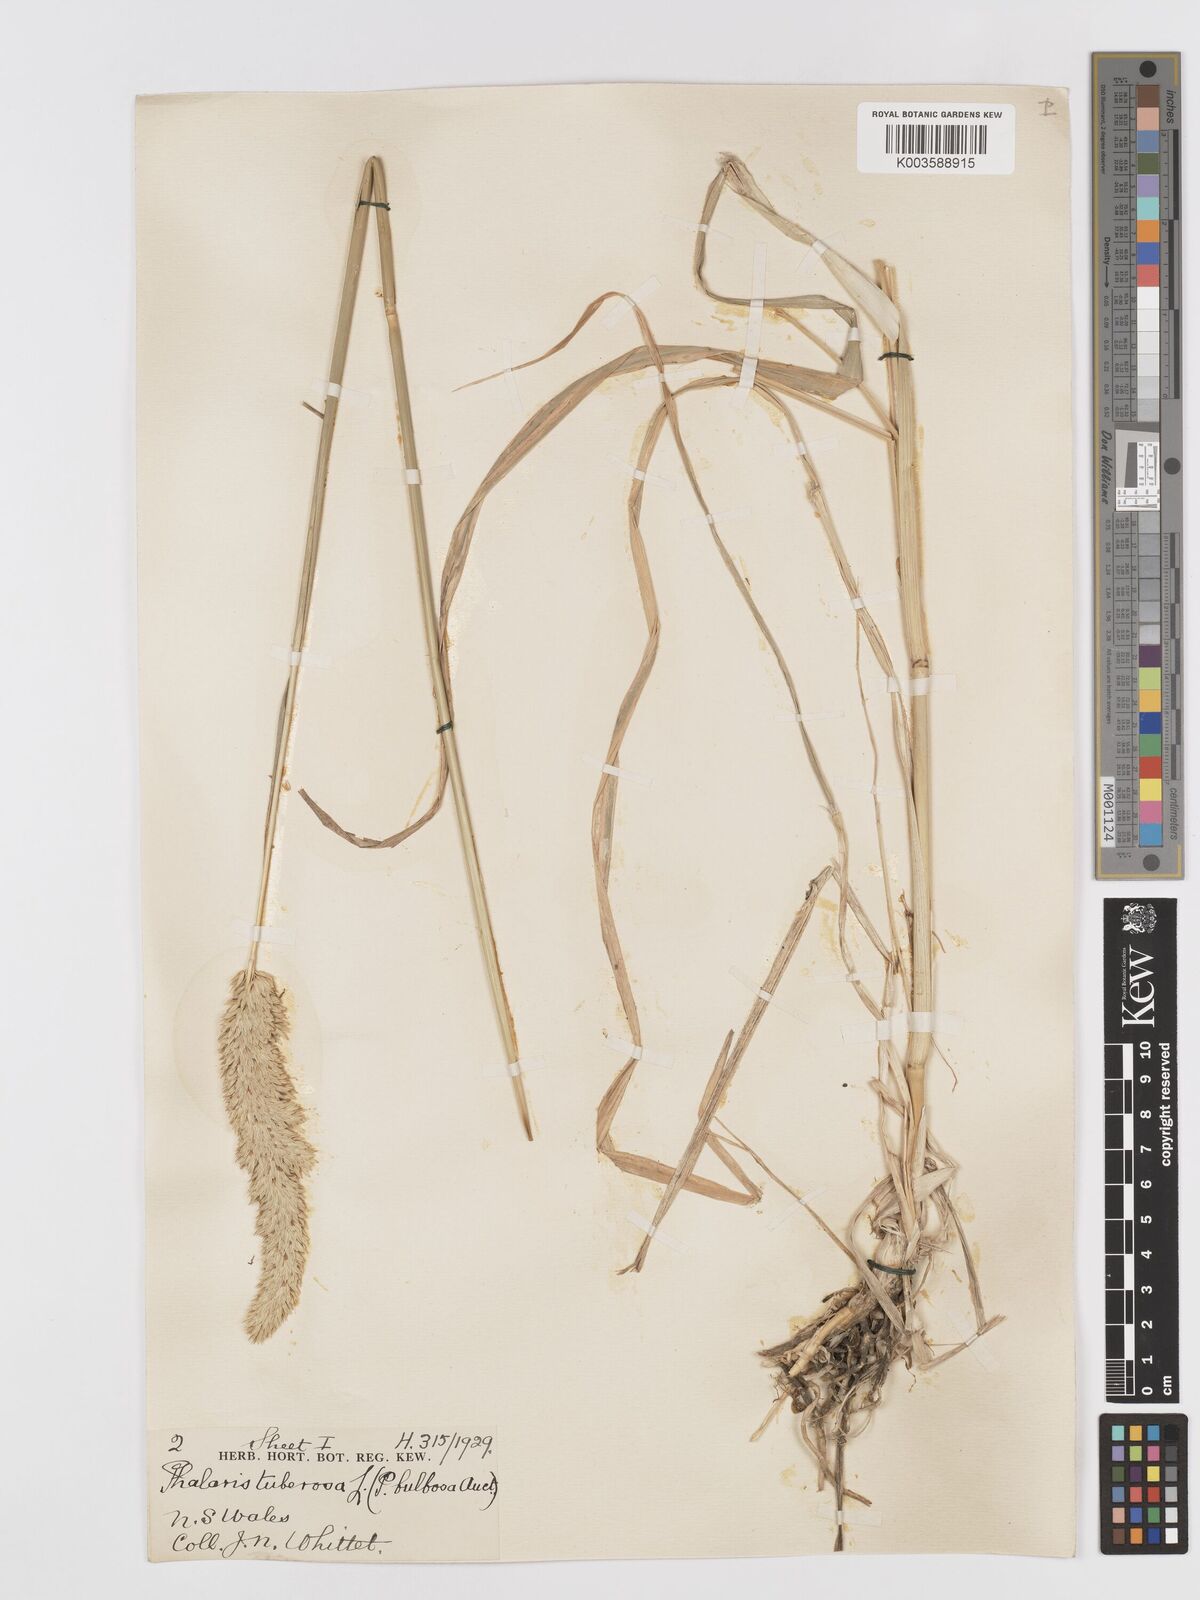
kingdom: Plantae
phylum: Tracheophyta
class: Liliopsida
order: Poales
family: Poaceae
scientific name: Poaceae
